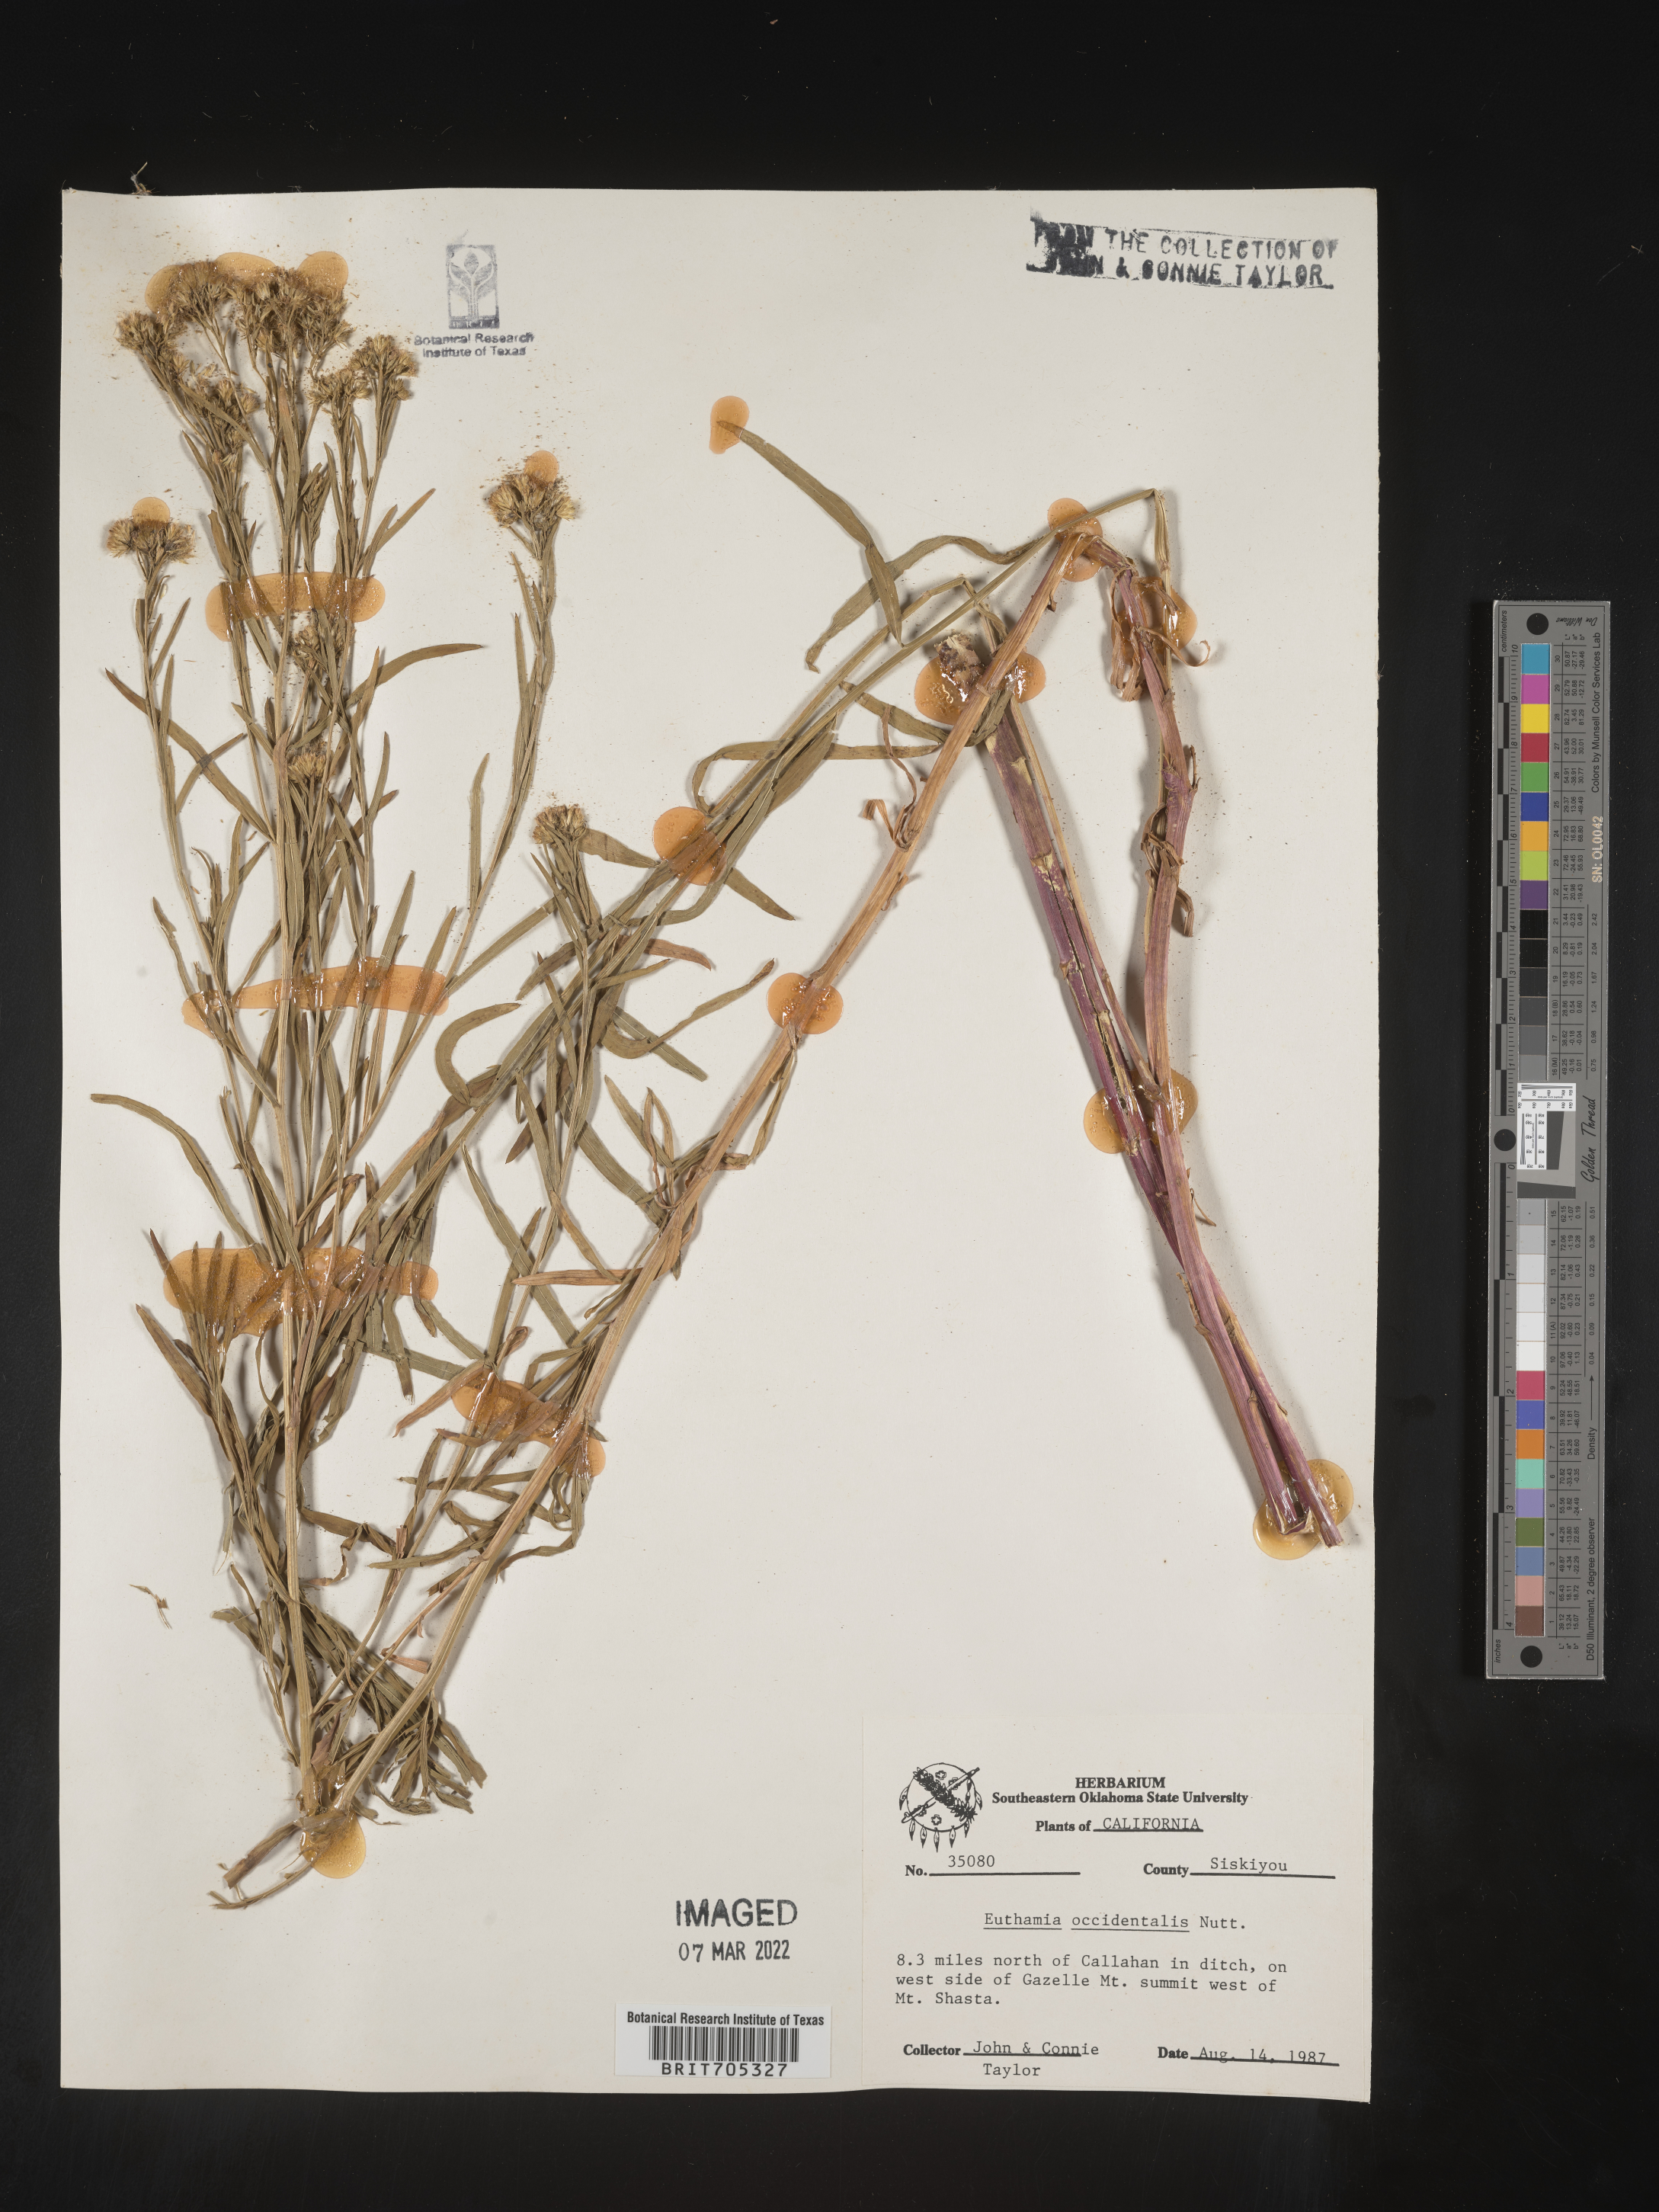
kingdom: Plantae
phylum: Tracheophyta
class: Magnoliopsida
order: Asterales
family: Asteraceae
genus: Euthamia
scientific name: Euthamia occidentalis
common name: Western goldentop
